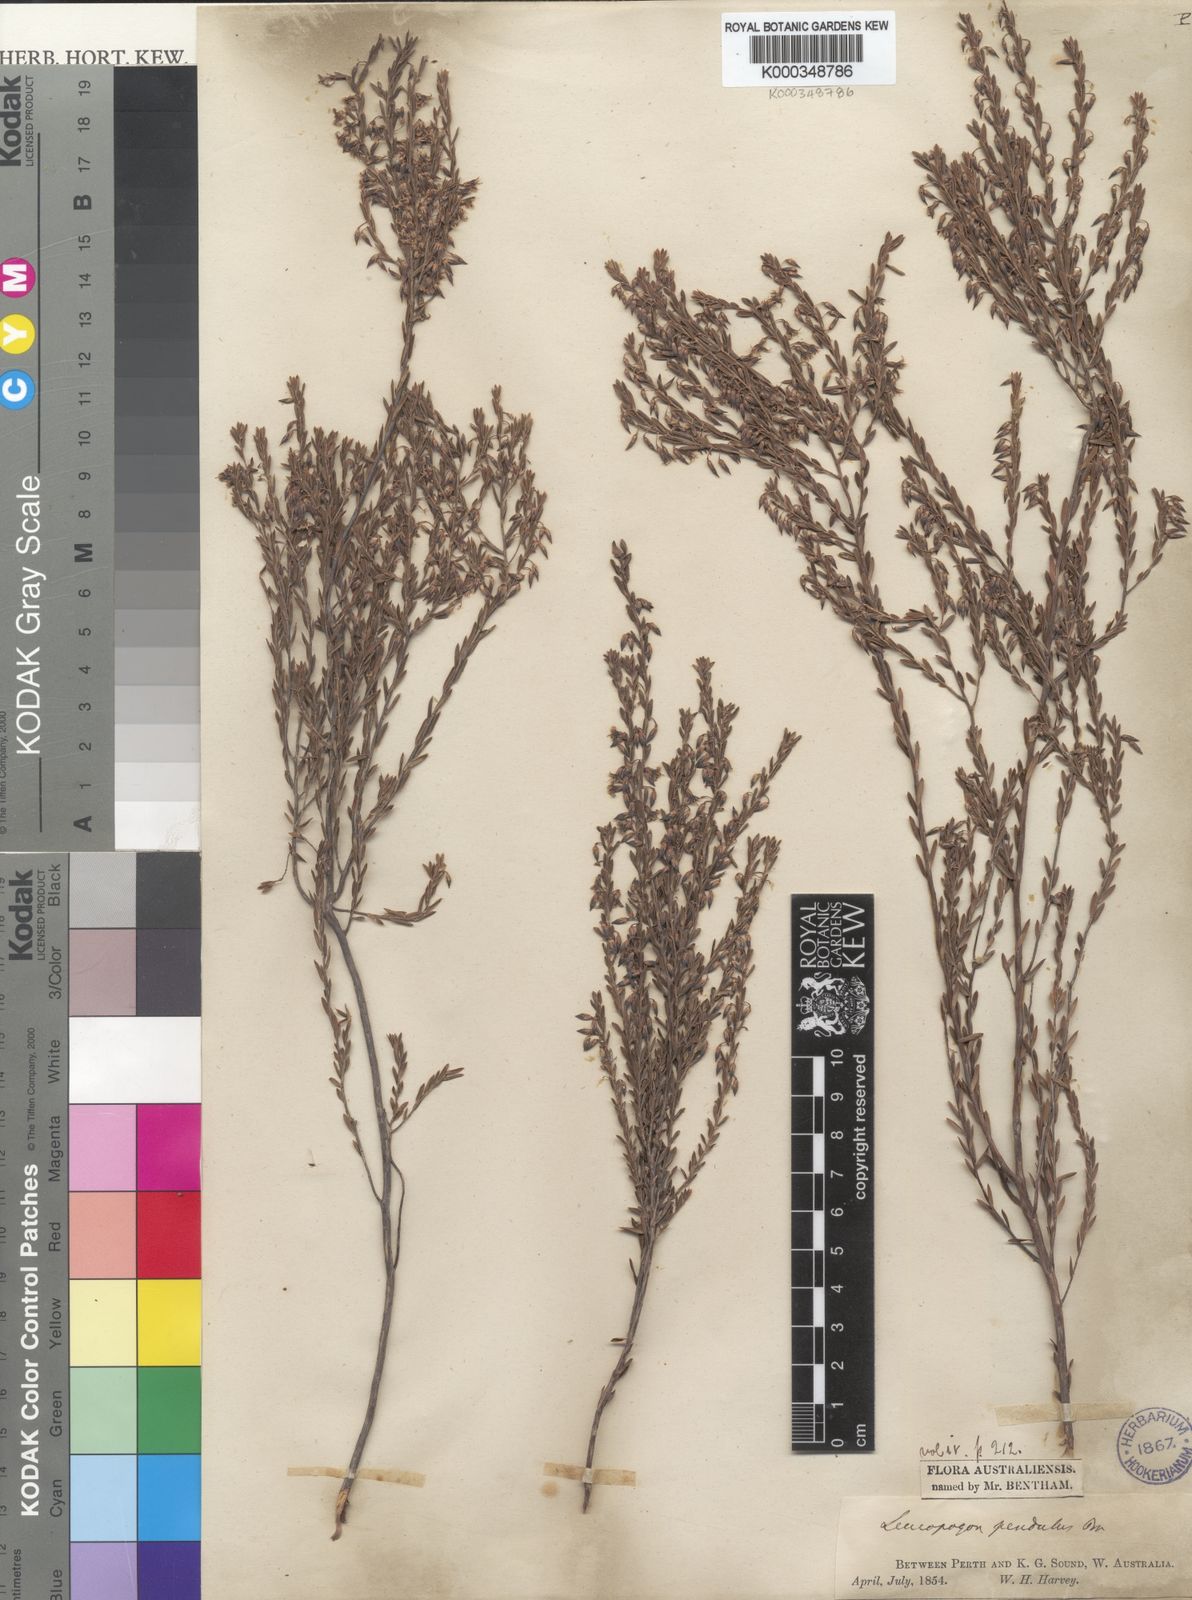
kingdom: Plantae
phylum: Tracheophyta
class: Magnoliopsida
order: Ericales
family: Ericaceae
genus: Styphelia
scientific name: Styphelia pendula
